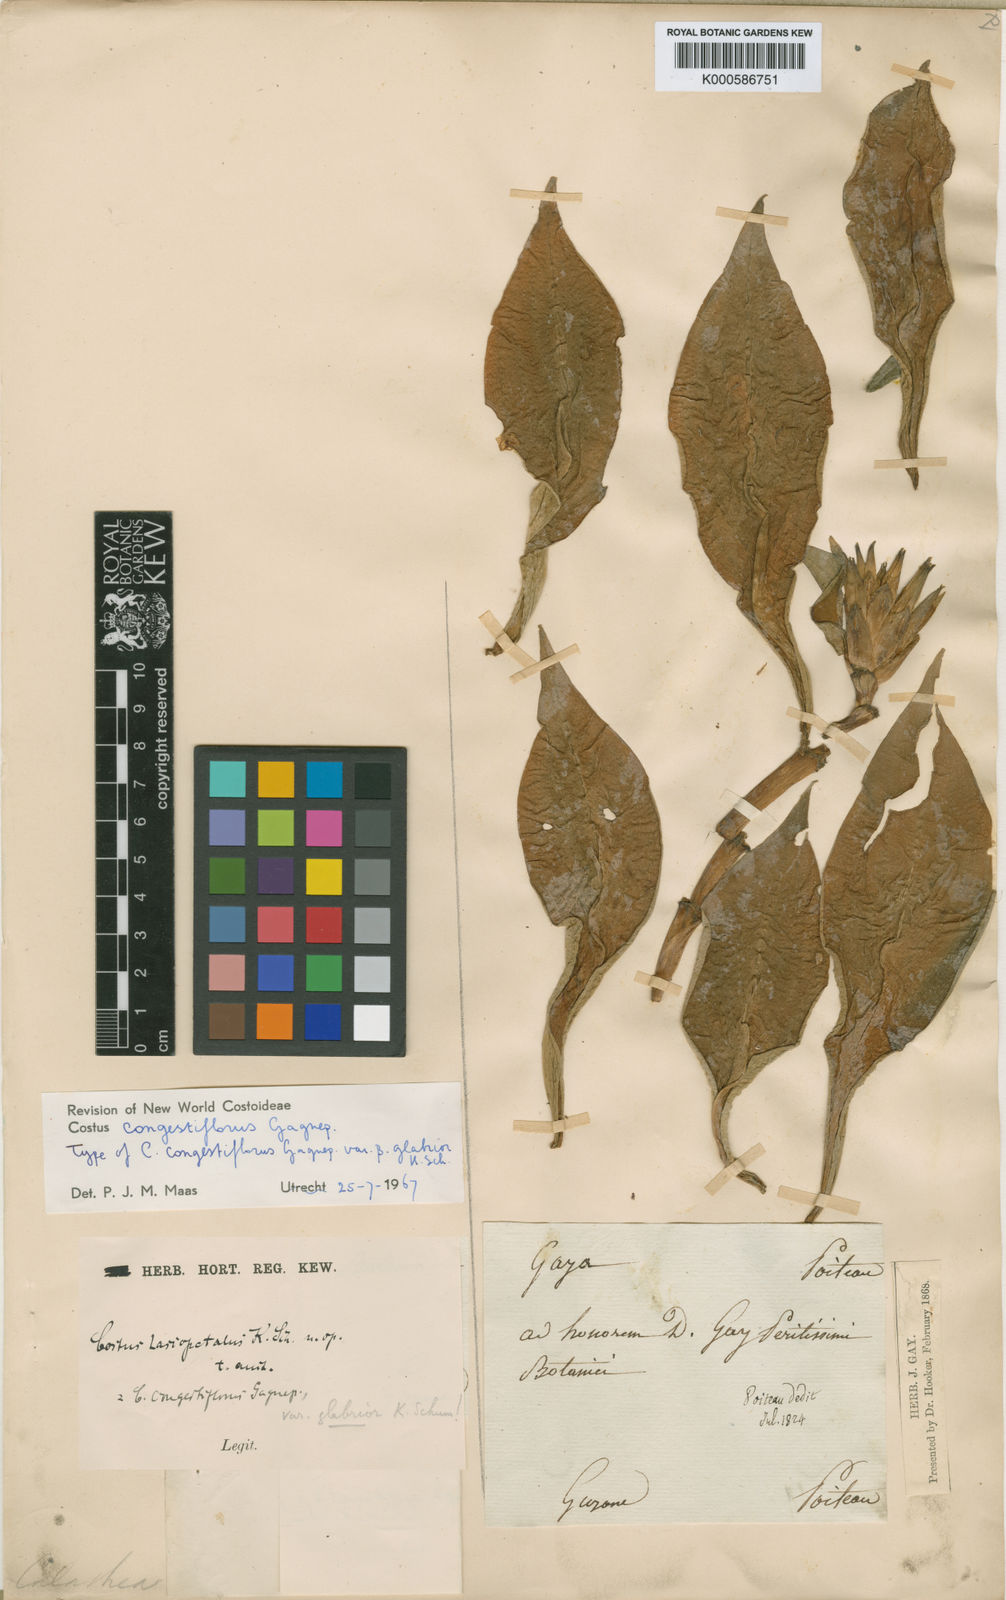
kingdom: Plantae
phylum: Tracheophyta
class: Liliopsida
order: Zingiberales
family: Costaceae
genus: Costus
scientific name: Costus
